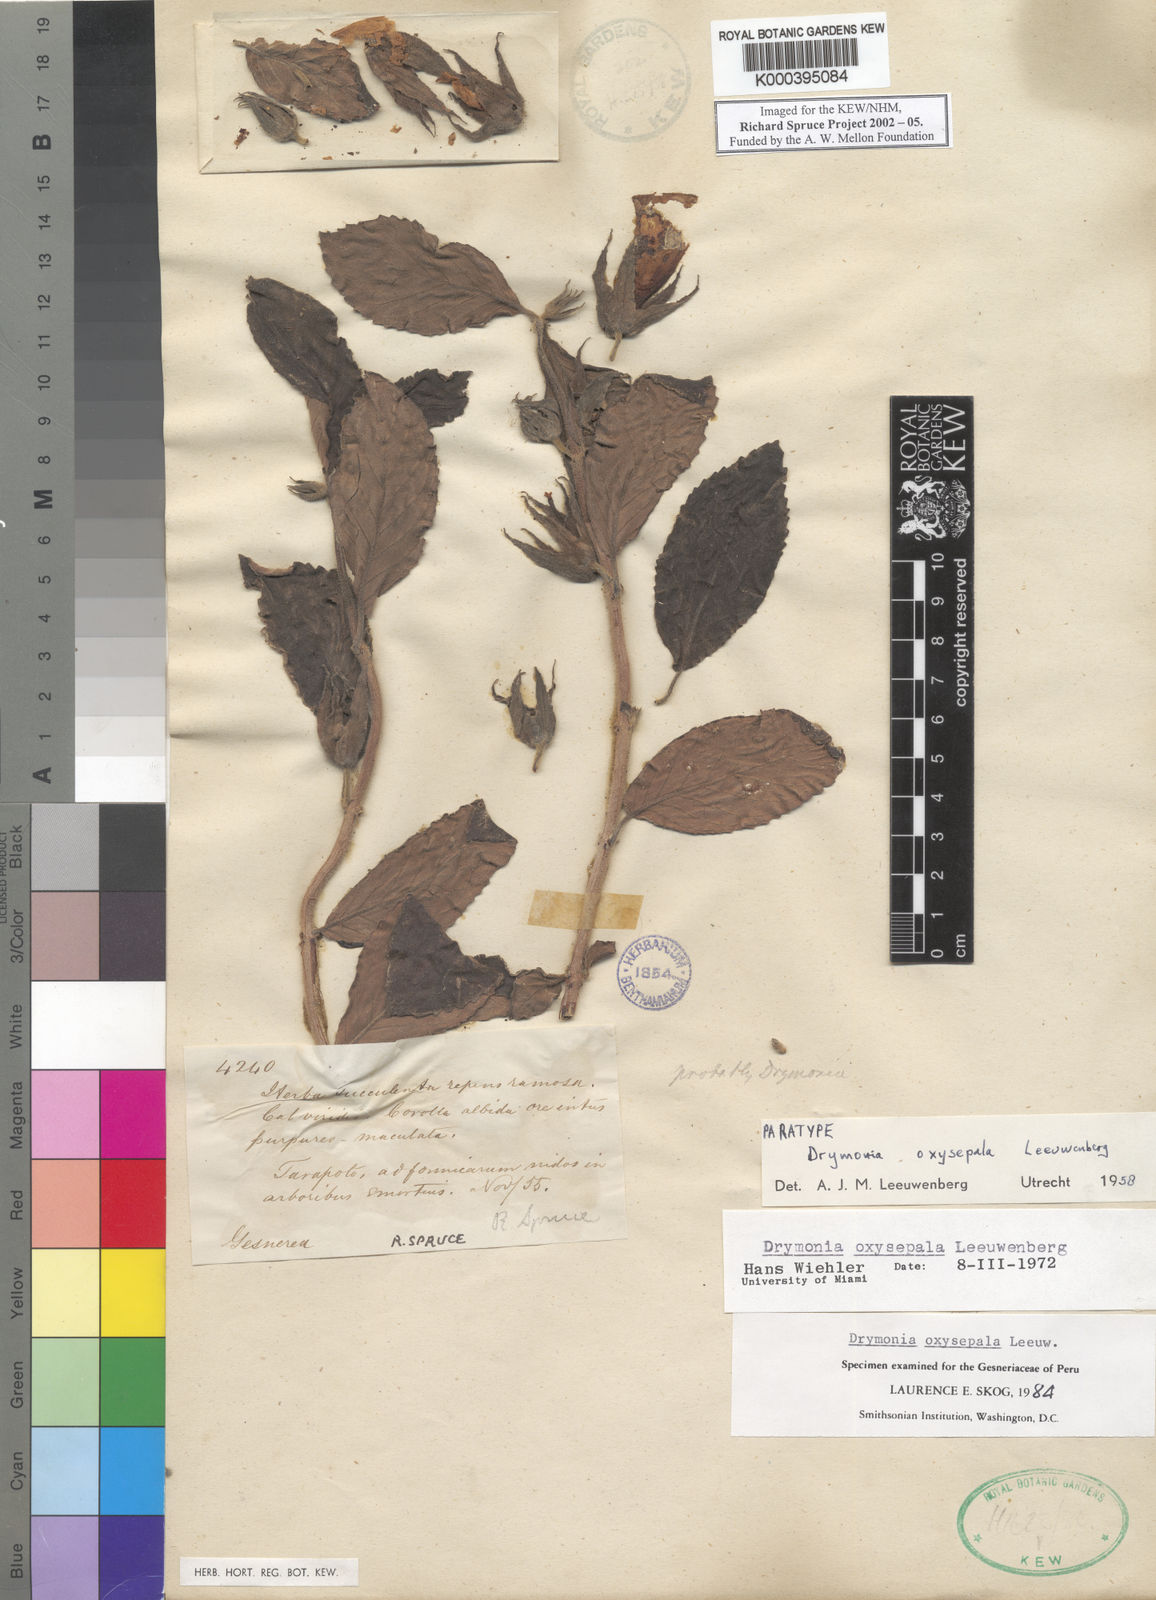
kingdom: Plantae
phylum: Tracheophyta
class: Magnoliopsida
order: Lamiales
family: Gesneriaceae
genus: Drymonia
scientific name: Drymonia oxysepala
